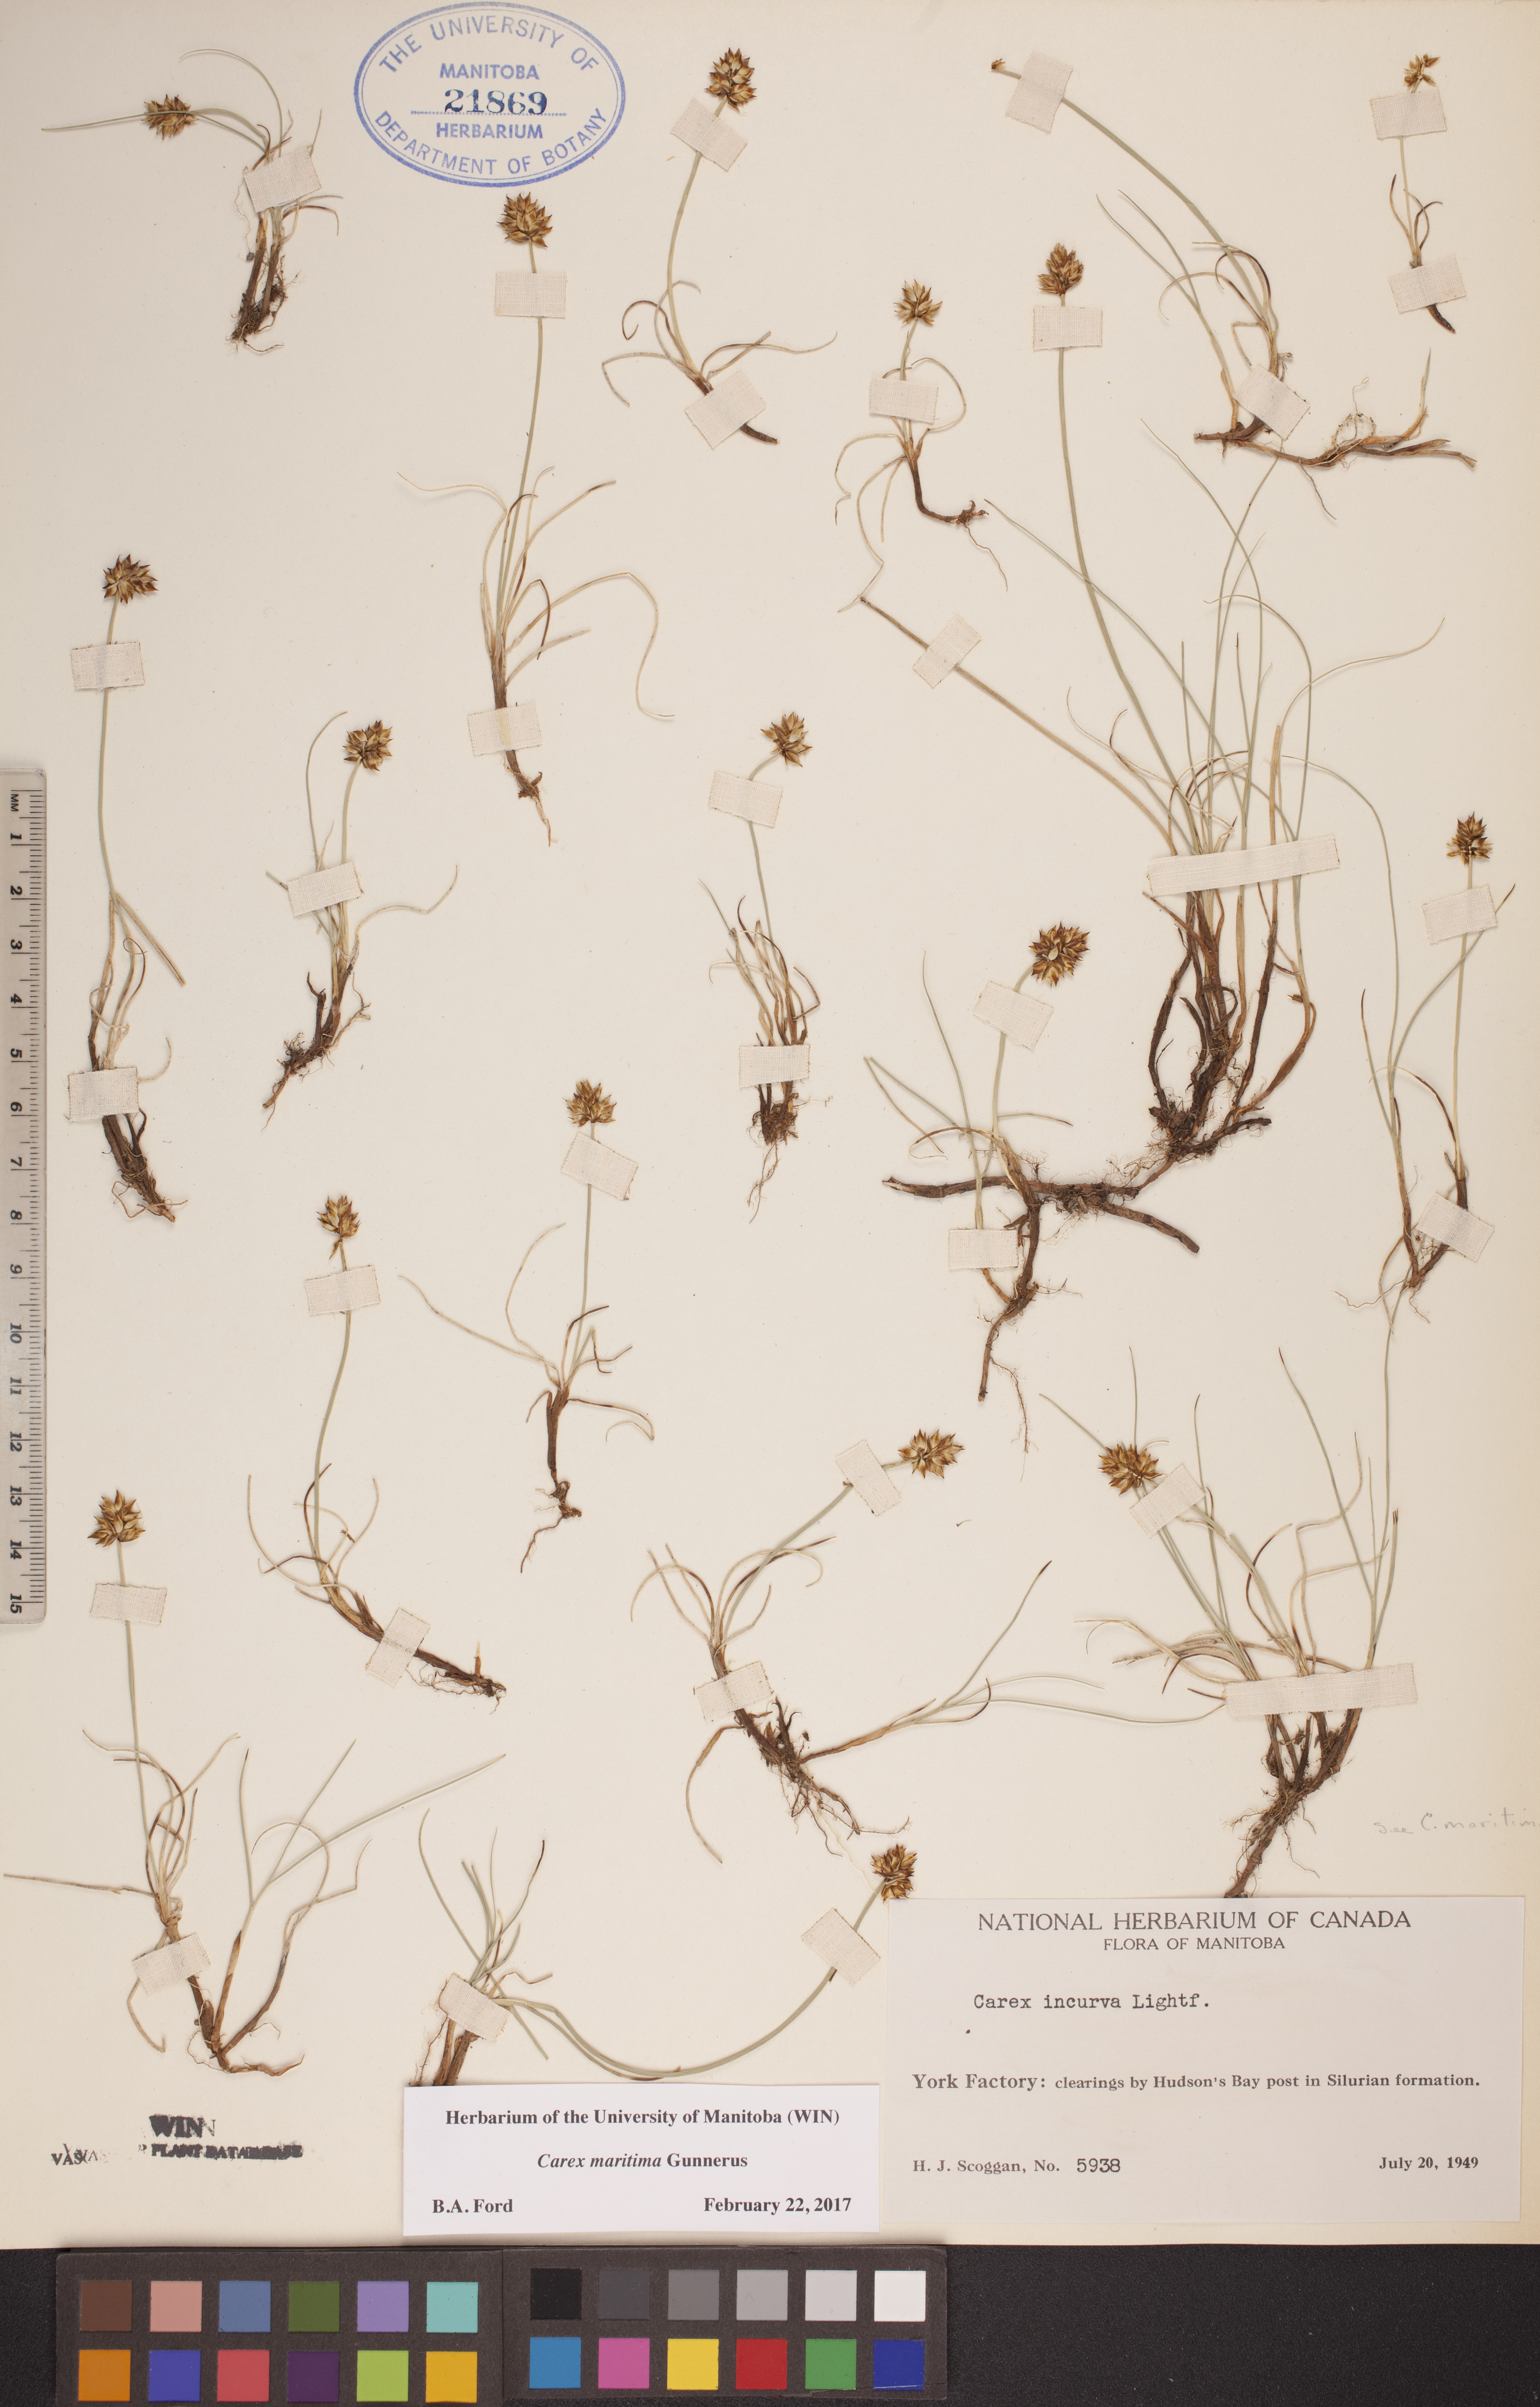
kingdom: Plantae
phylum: Tracheophyta
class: Liliopsida
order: Poales
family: Cyperaceae
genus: Carex
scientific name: Carex maritima
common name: Curved sedge
